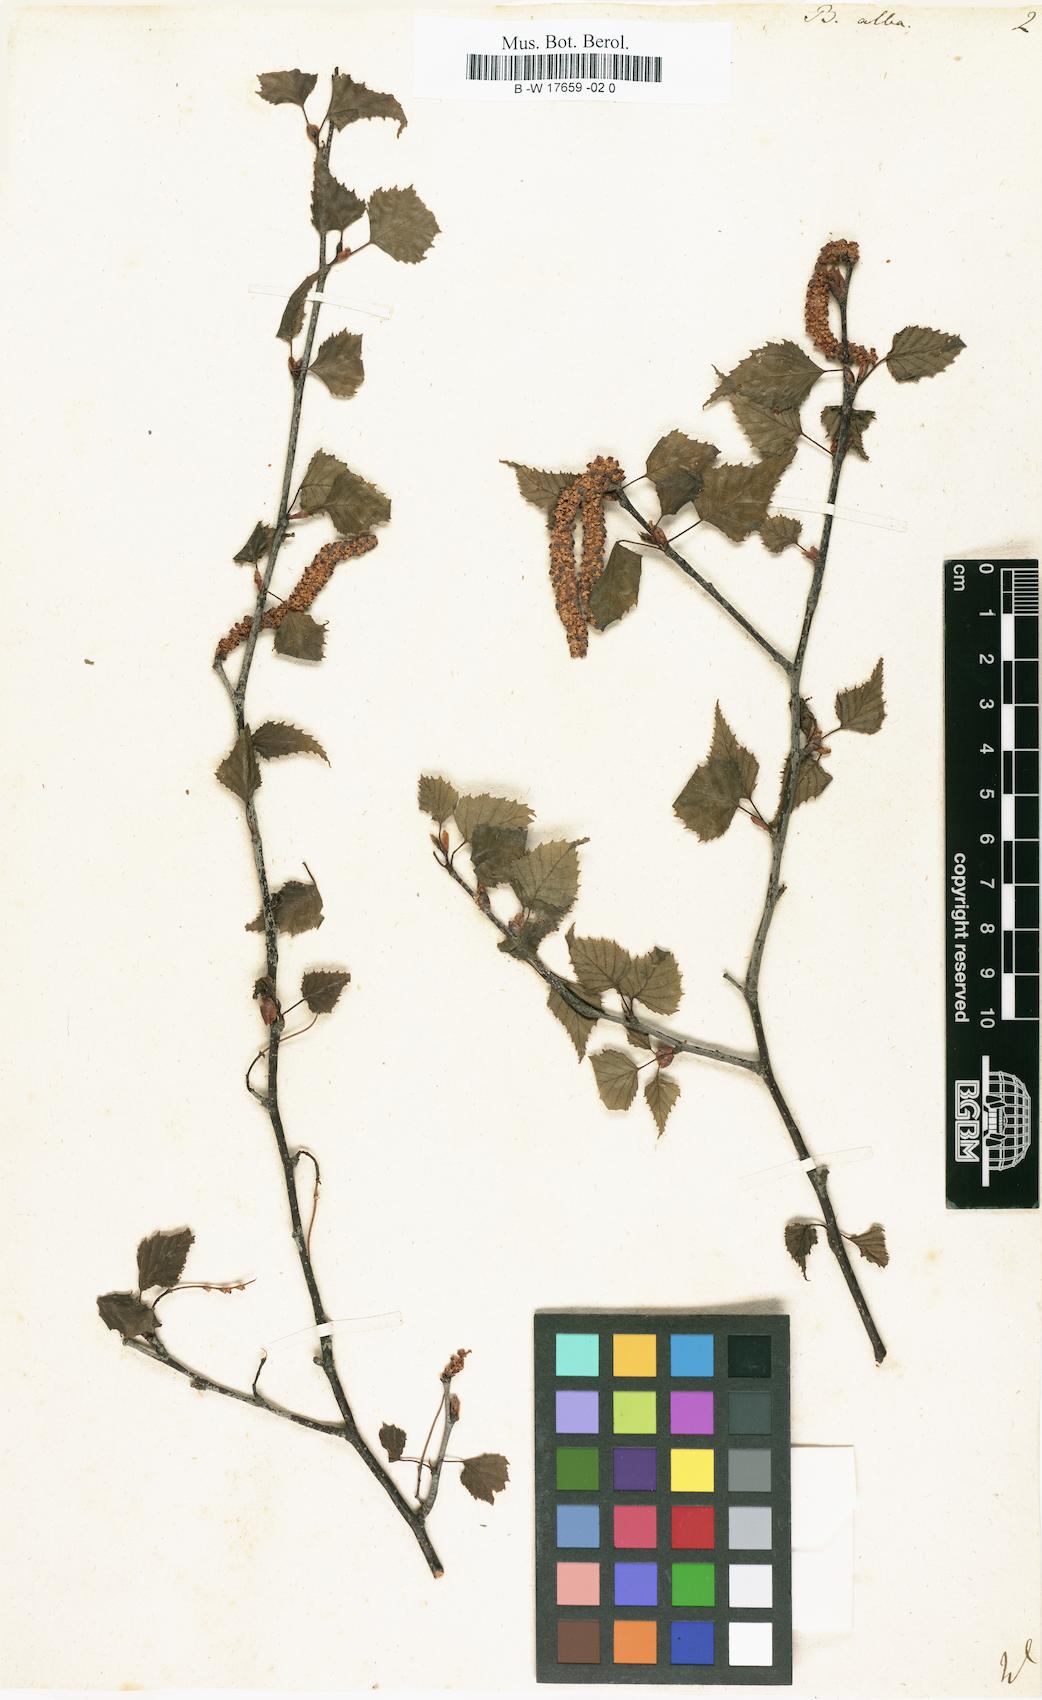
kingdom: Plantae
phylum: Tracheophyta
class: Magnoliopsida
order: Fagales
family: Betulaceae
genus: Betula
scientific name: Betula pubescens
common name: Downy birch
